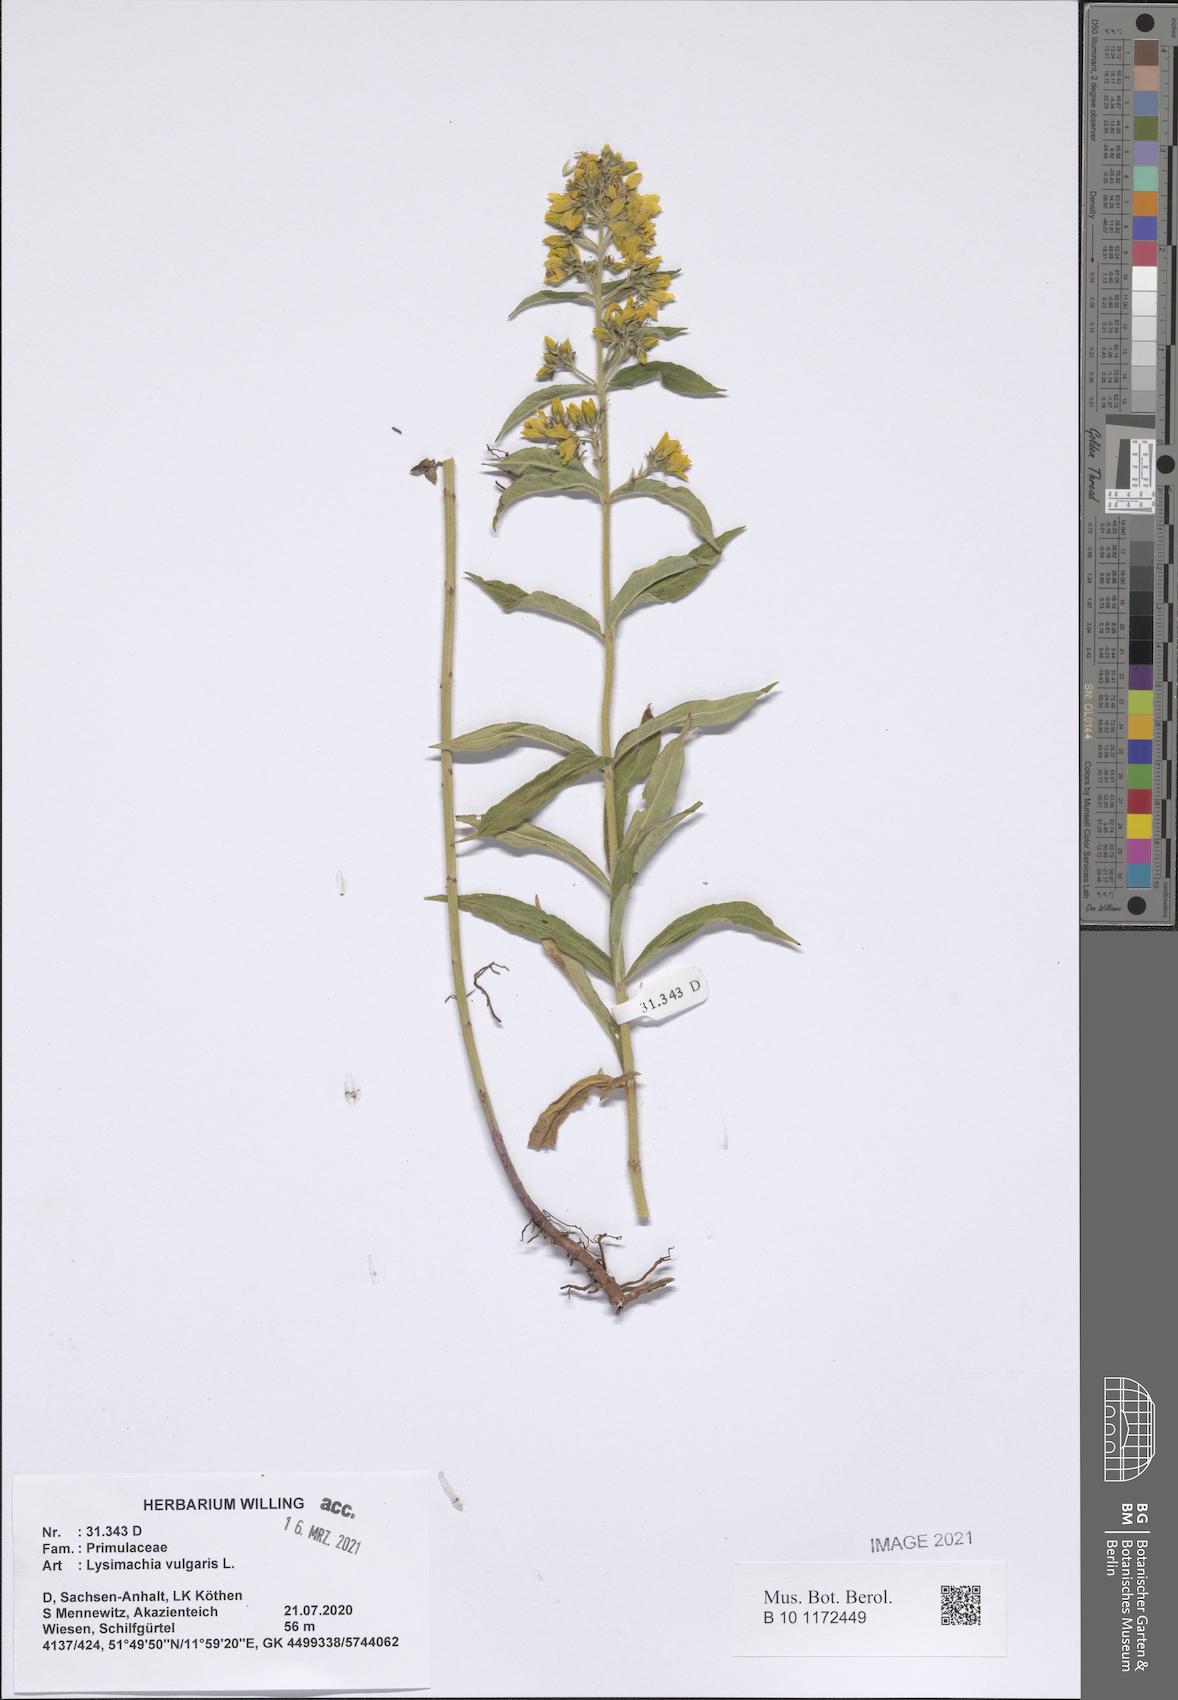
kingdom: Plantae
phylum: Tracheophyta
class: Magnoliopsida
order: Ericales
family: Primulaceae
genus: Lysimachia
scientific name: Lysimachia vulgaris
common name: Yellow loosestrife
